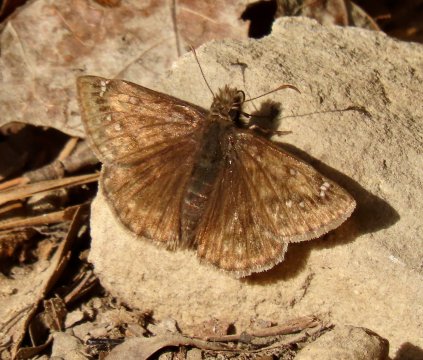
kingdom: Animalia
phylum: Arthropoda
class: Insecta
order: Lepidoptera
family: Hesperiidae
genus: Gesta
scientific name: Gesta
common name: Juvenal's Duskywing
